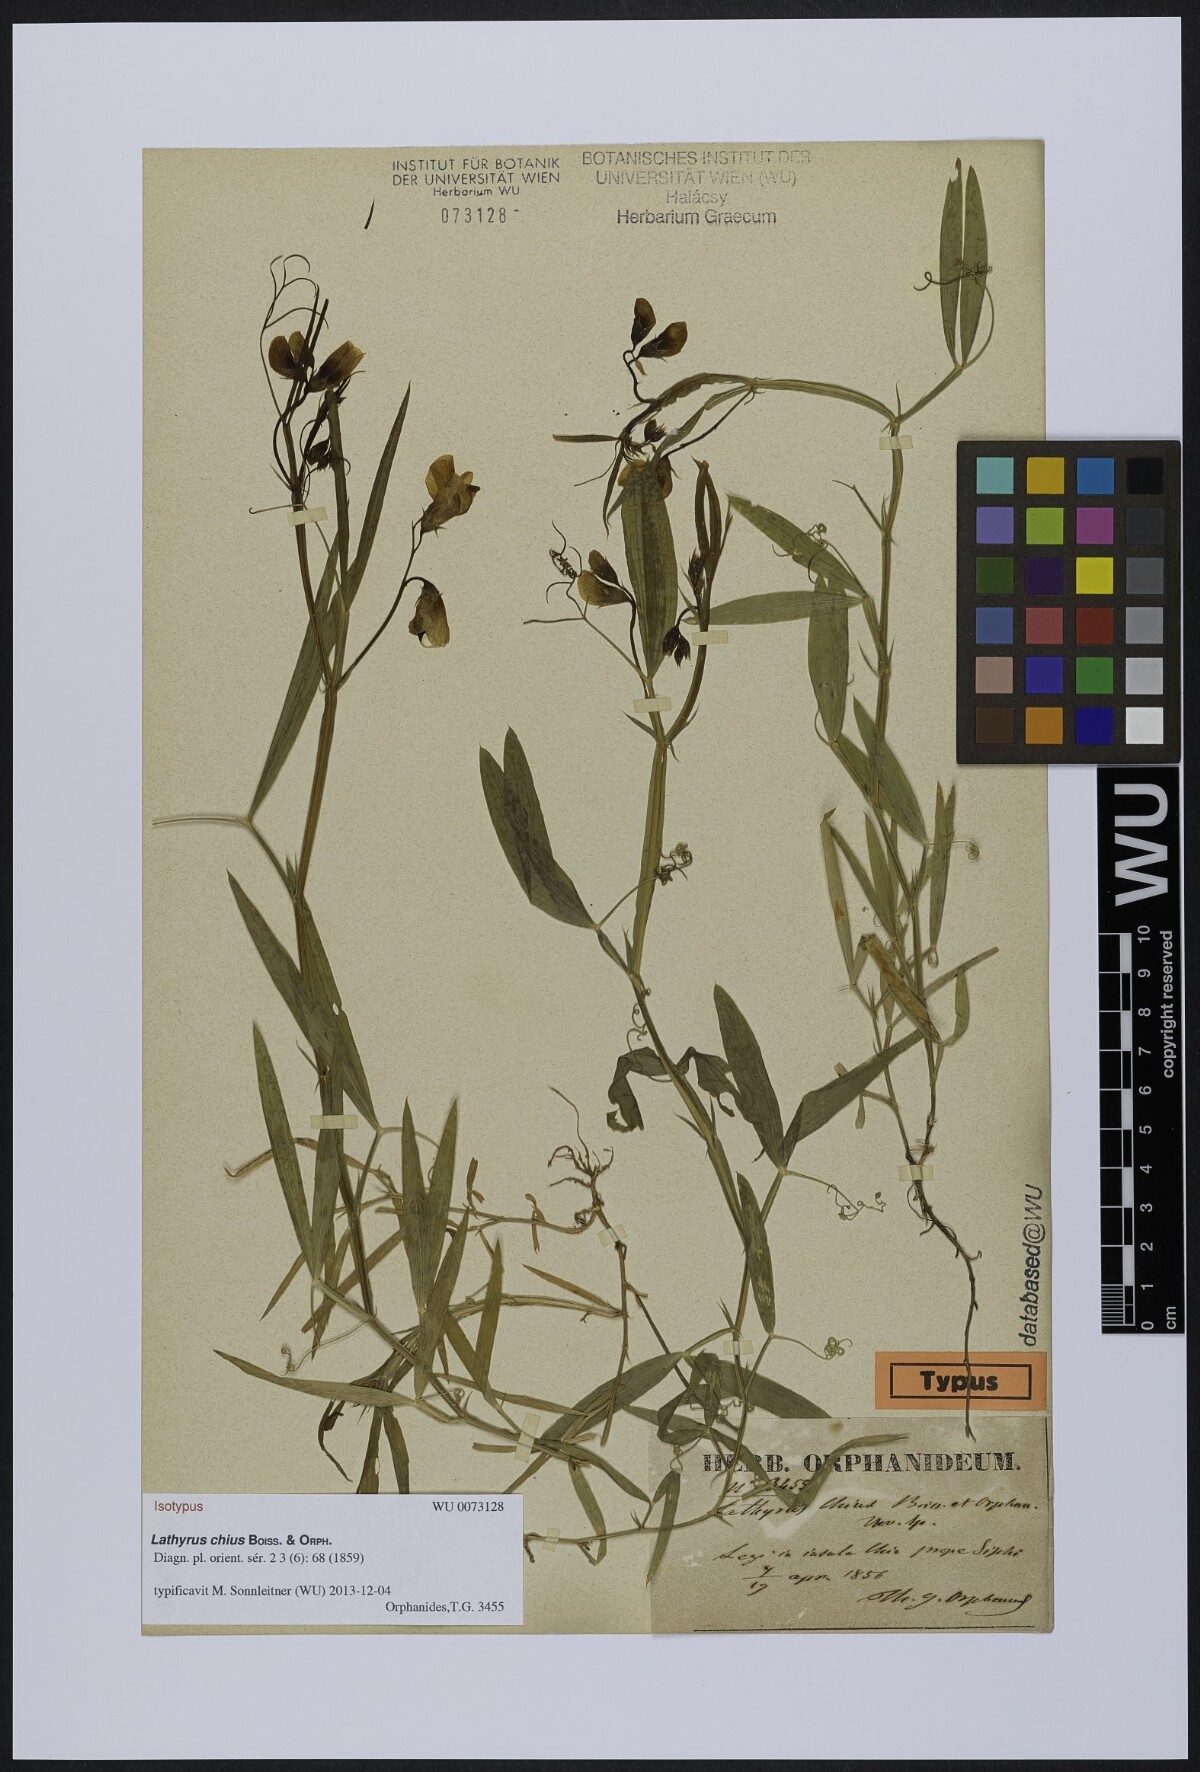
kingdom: Plantae
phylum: Tracheophyta
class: Magnoliopsida
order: Fabales
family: Fabaceae
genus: Lathyrus
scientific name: Lathyrus annuus
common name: Fodder pea
